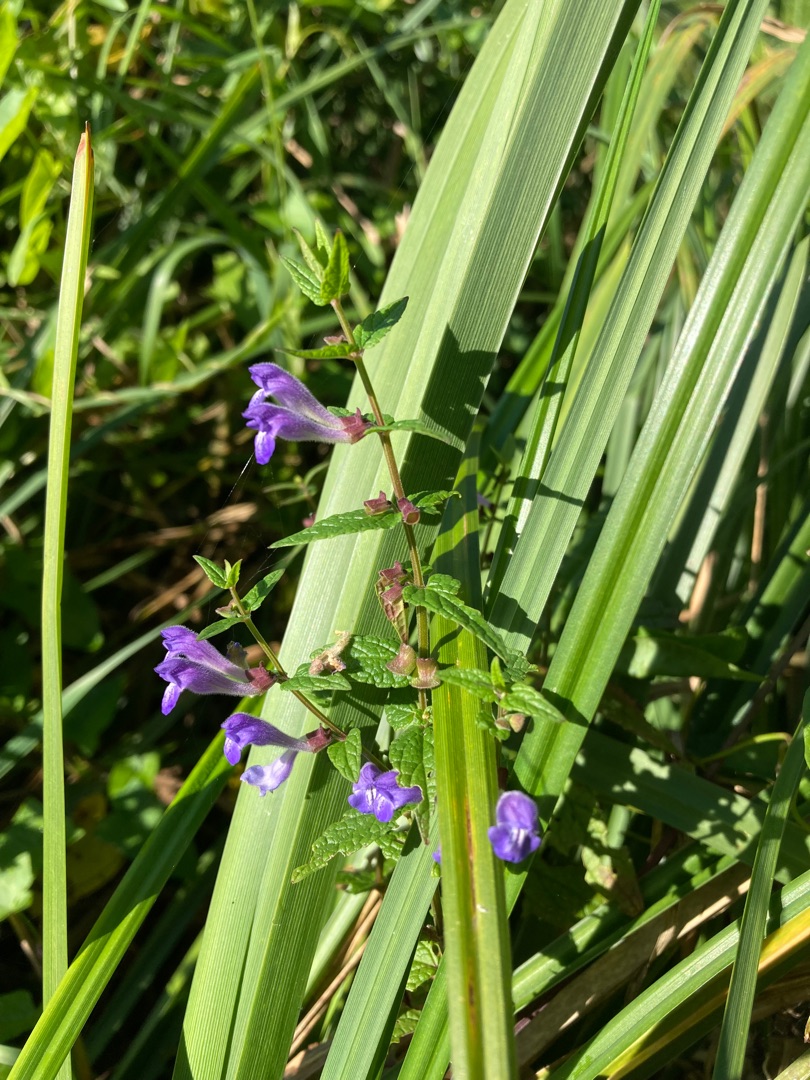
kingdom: Plantae
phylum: Tracheophyta
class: Magnoliopsida
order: Lamiales
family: Lamiaceae
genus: Scutellaria
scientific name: Scutellaria galericulata
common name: Almindelig skjolddrager
